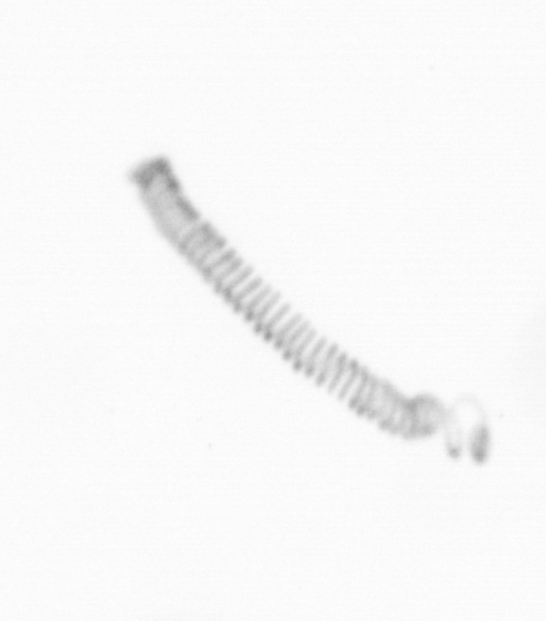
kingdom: Chromista
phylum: Ochrophyta
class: Bacillariophyceae
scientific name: Bacillariophyceae
